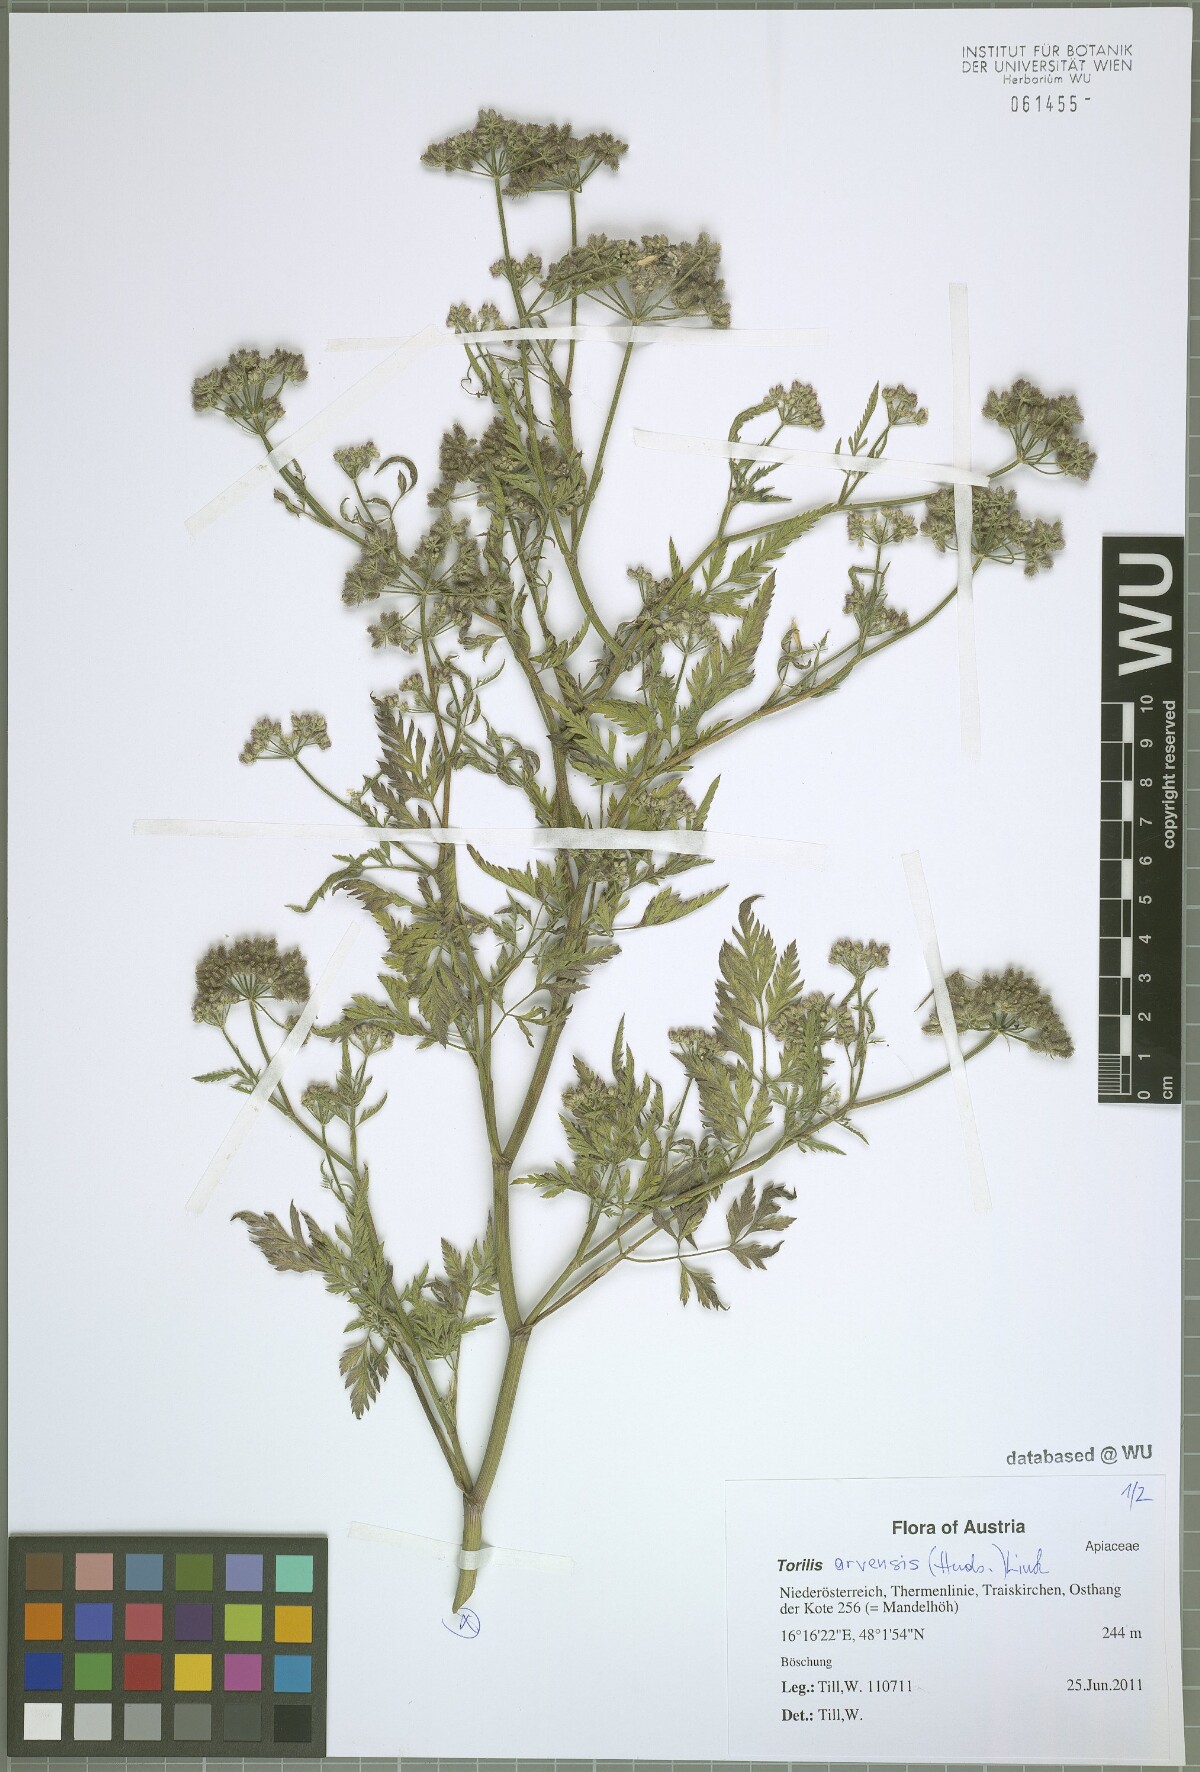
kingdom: Plantae
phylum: Tracheophyta
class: Magnoliopsida
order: Apiales
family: Apiaceae
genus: Torilis
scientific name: Torilis arvensis
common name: Spreading hedge-parsley
